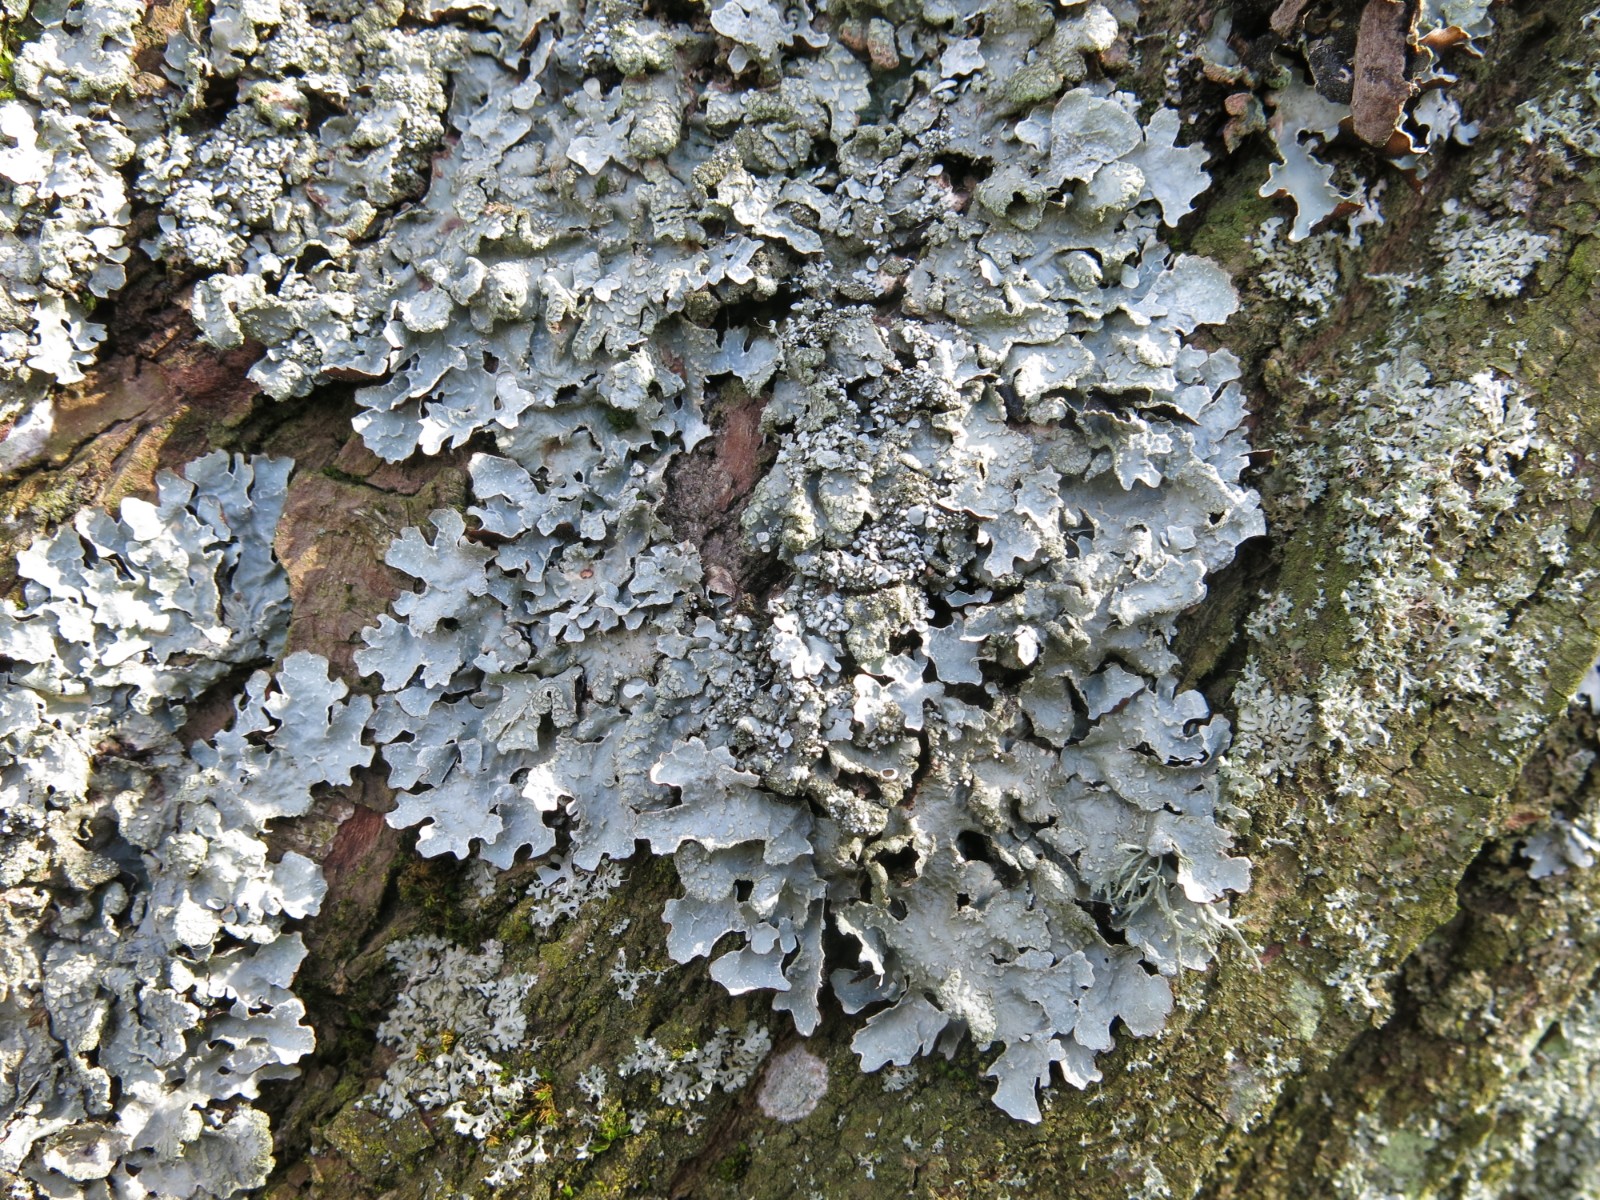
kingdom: Fungi
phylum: Ascomycota
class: Lecanoromycetes
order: Lecanorales
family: Parmeliaceae
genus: Parmelia
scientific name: Parmelia sulcata
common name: rynket skållav
